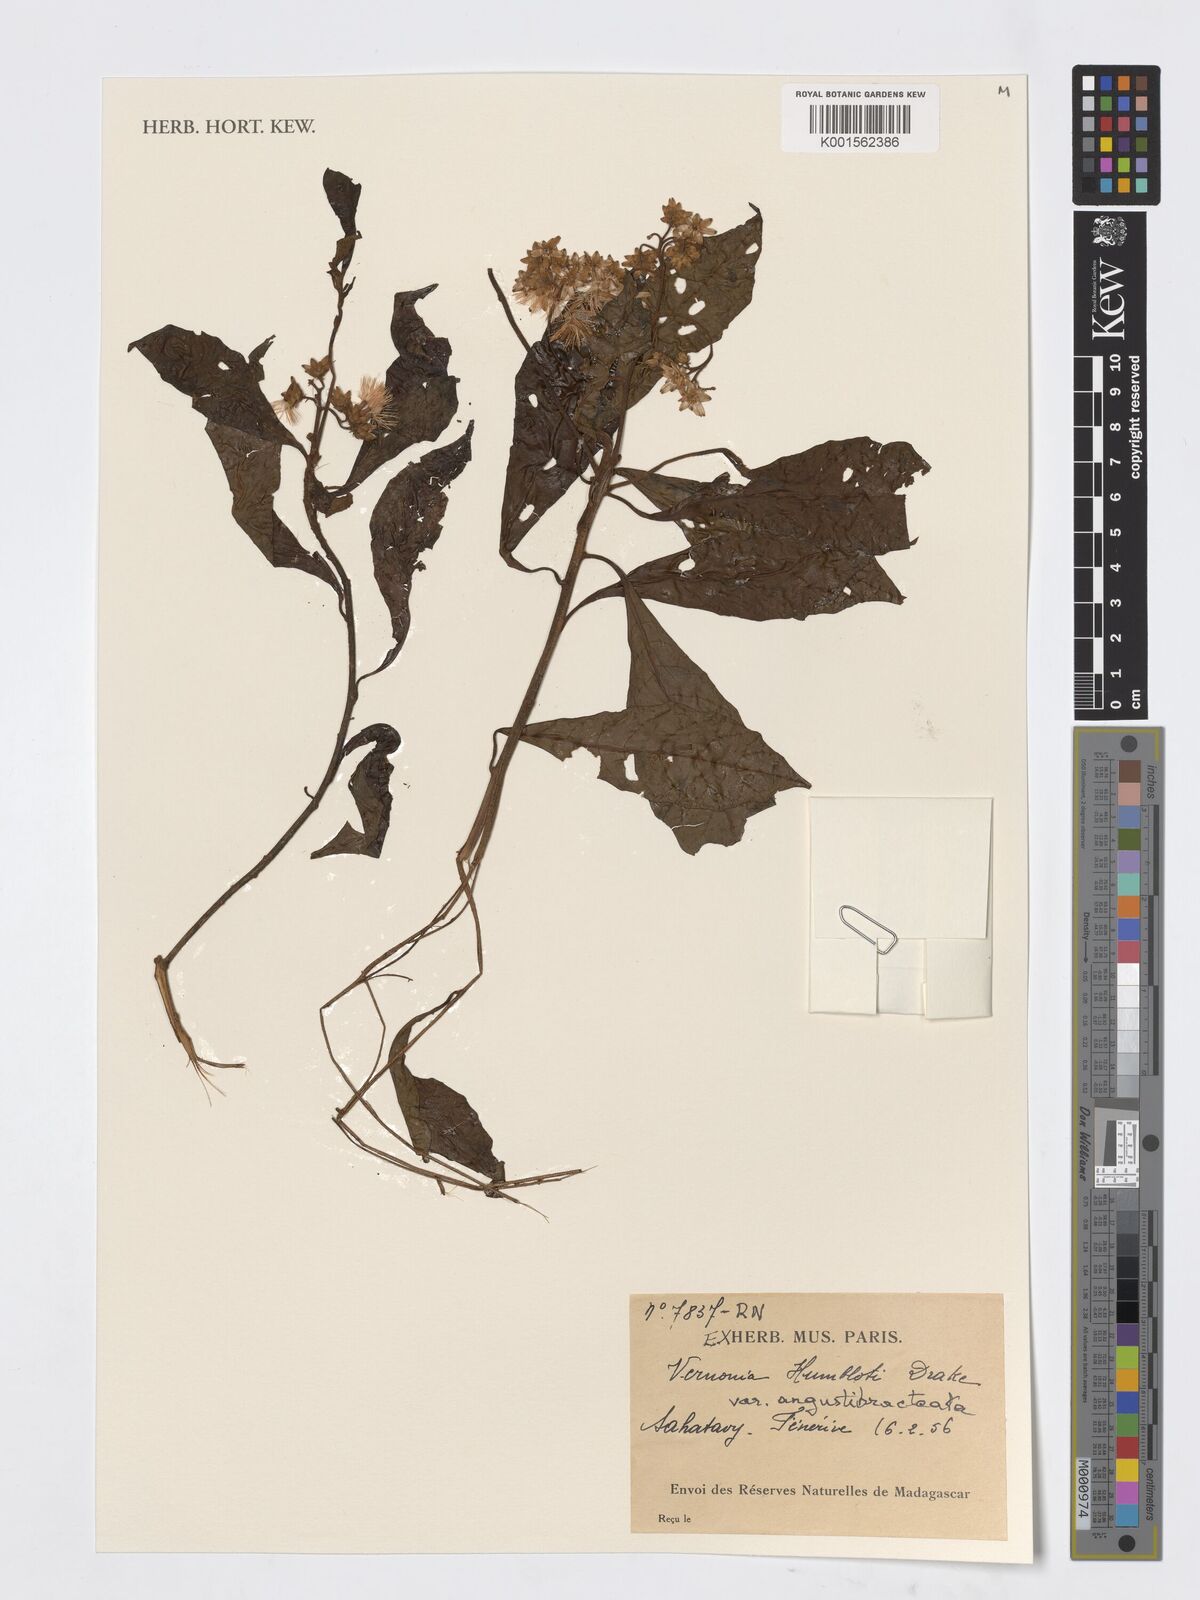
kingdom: Plantae
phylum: Tracheophyta
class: Magnoliopsida
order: Asterales
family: Asteraceae
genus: Gymnanthemum
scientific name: Gymnanthemum humblotii
